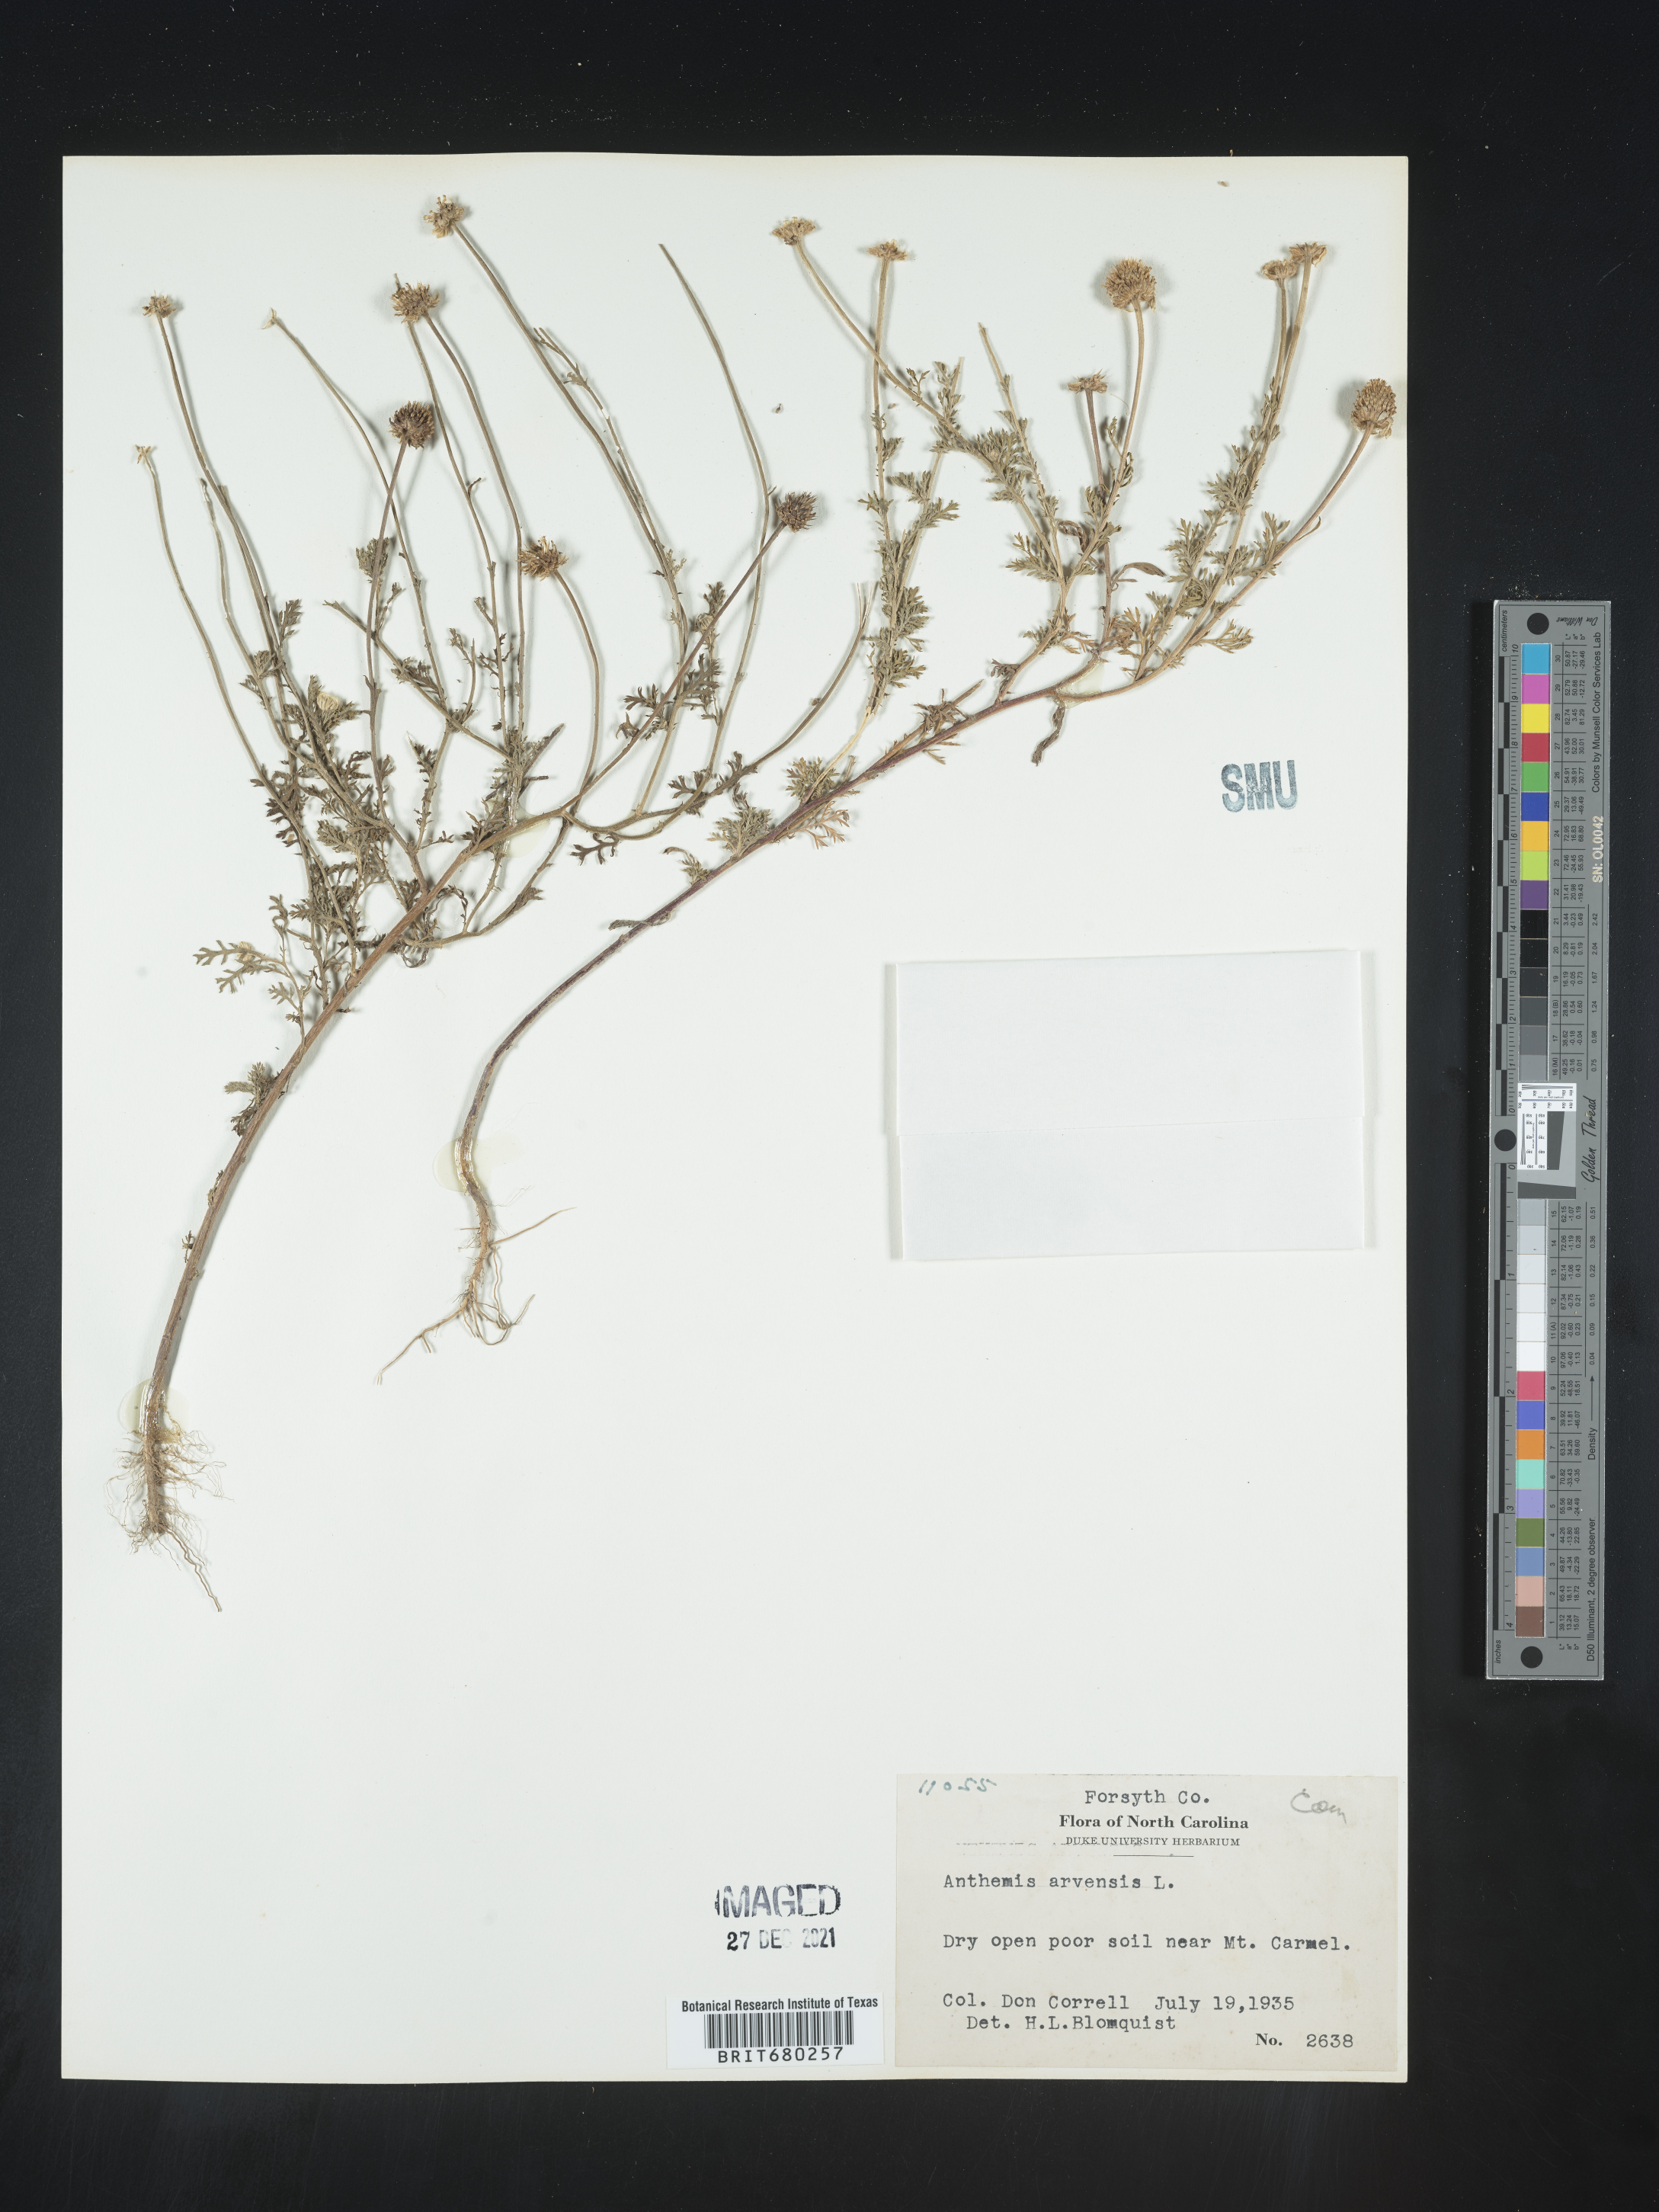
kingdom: Plantae
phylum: Tracheophyta
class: Magnoliopsida
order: Asterales
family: Asteraceae
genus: Anthemis
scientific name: Anthemis arvensis
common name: Corn chamomile
